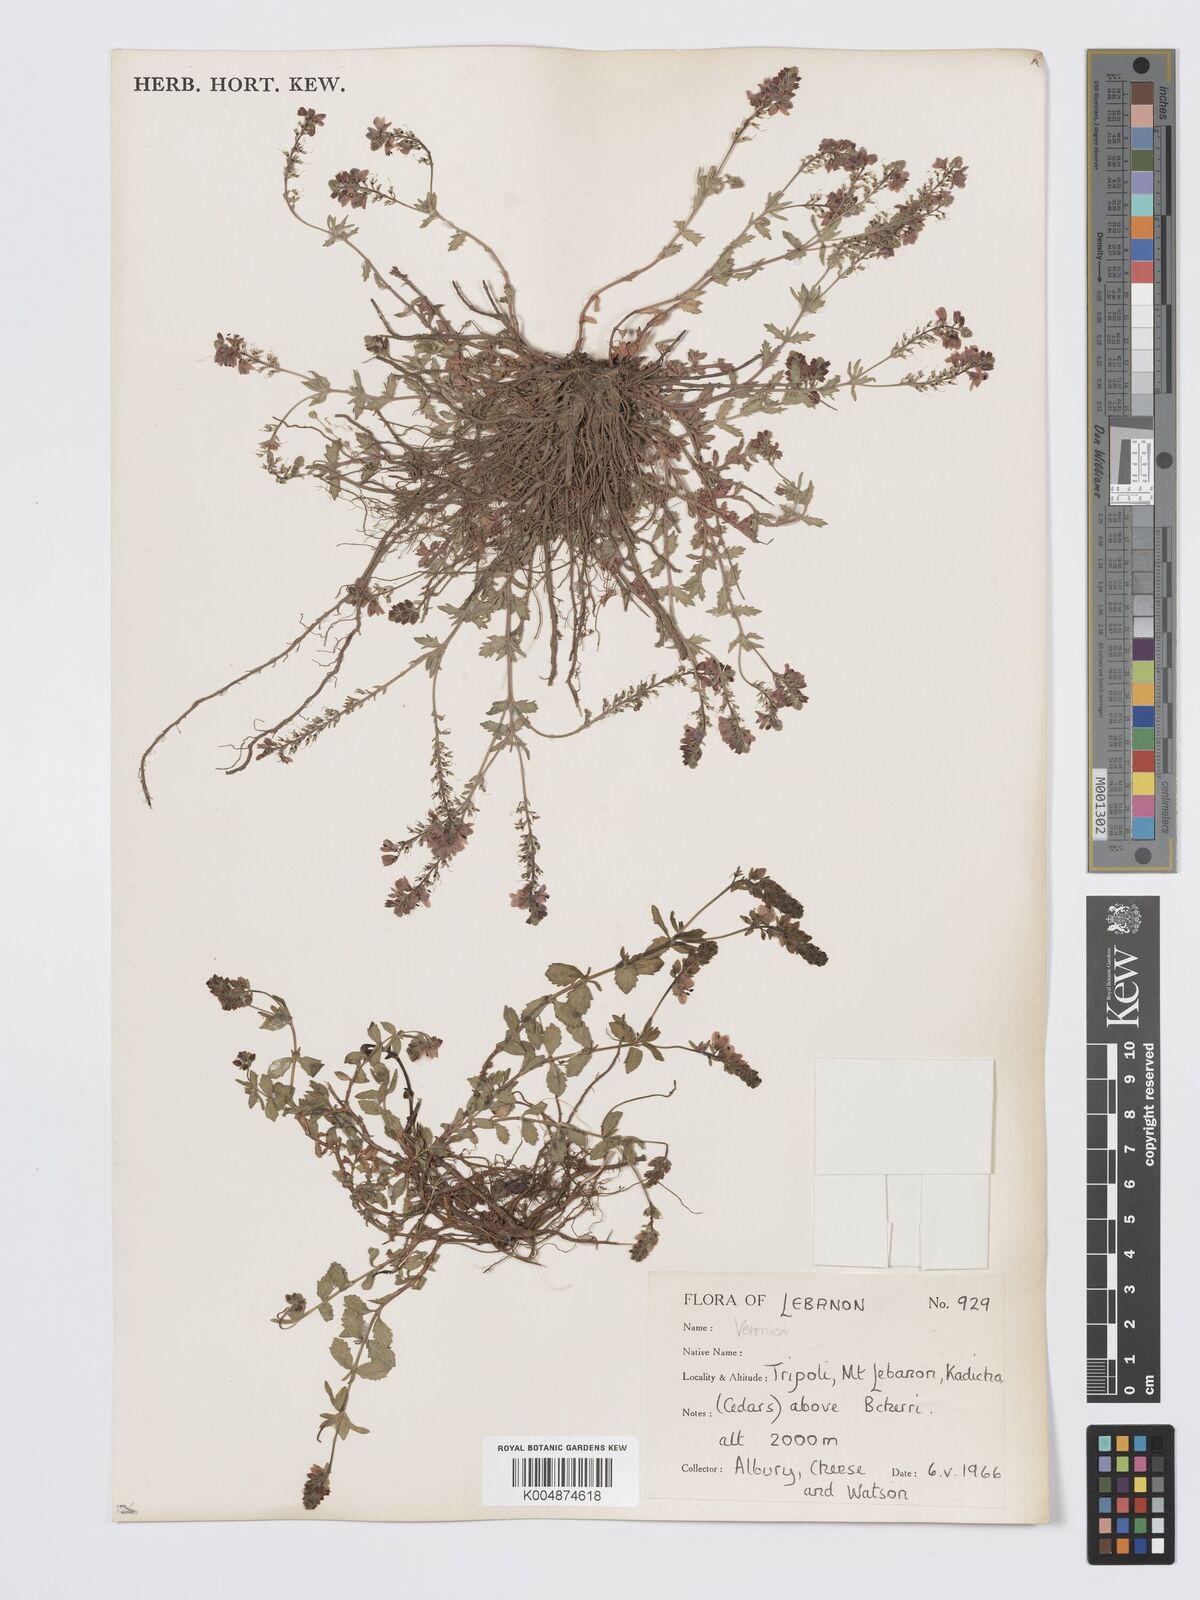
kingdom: Plantae
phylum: Tracheophyta
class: Magnoliopsida
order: Lamiales
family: Plantaginaceae
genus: Veronica
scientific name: Veronica
